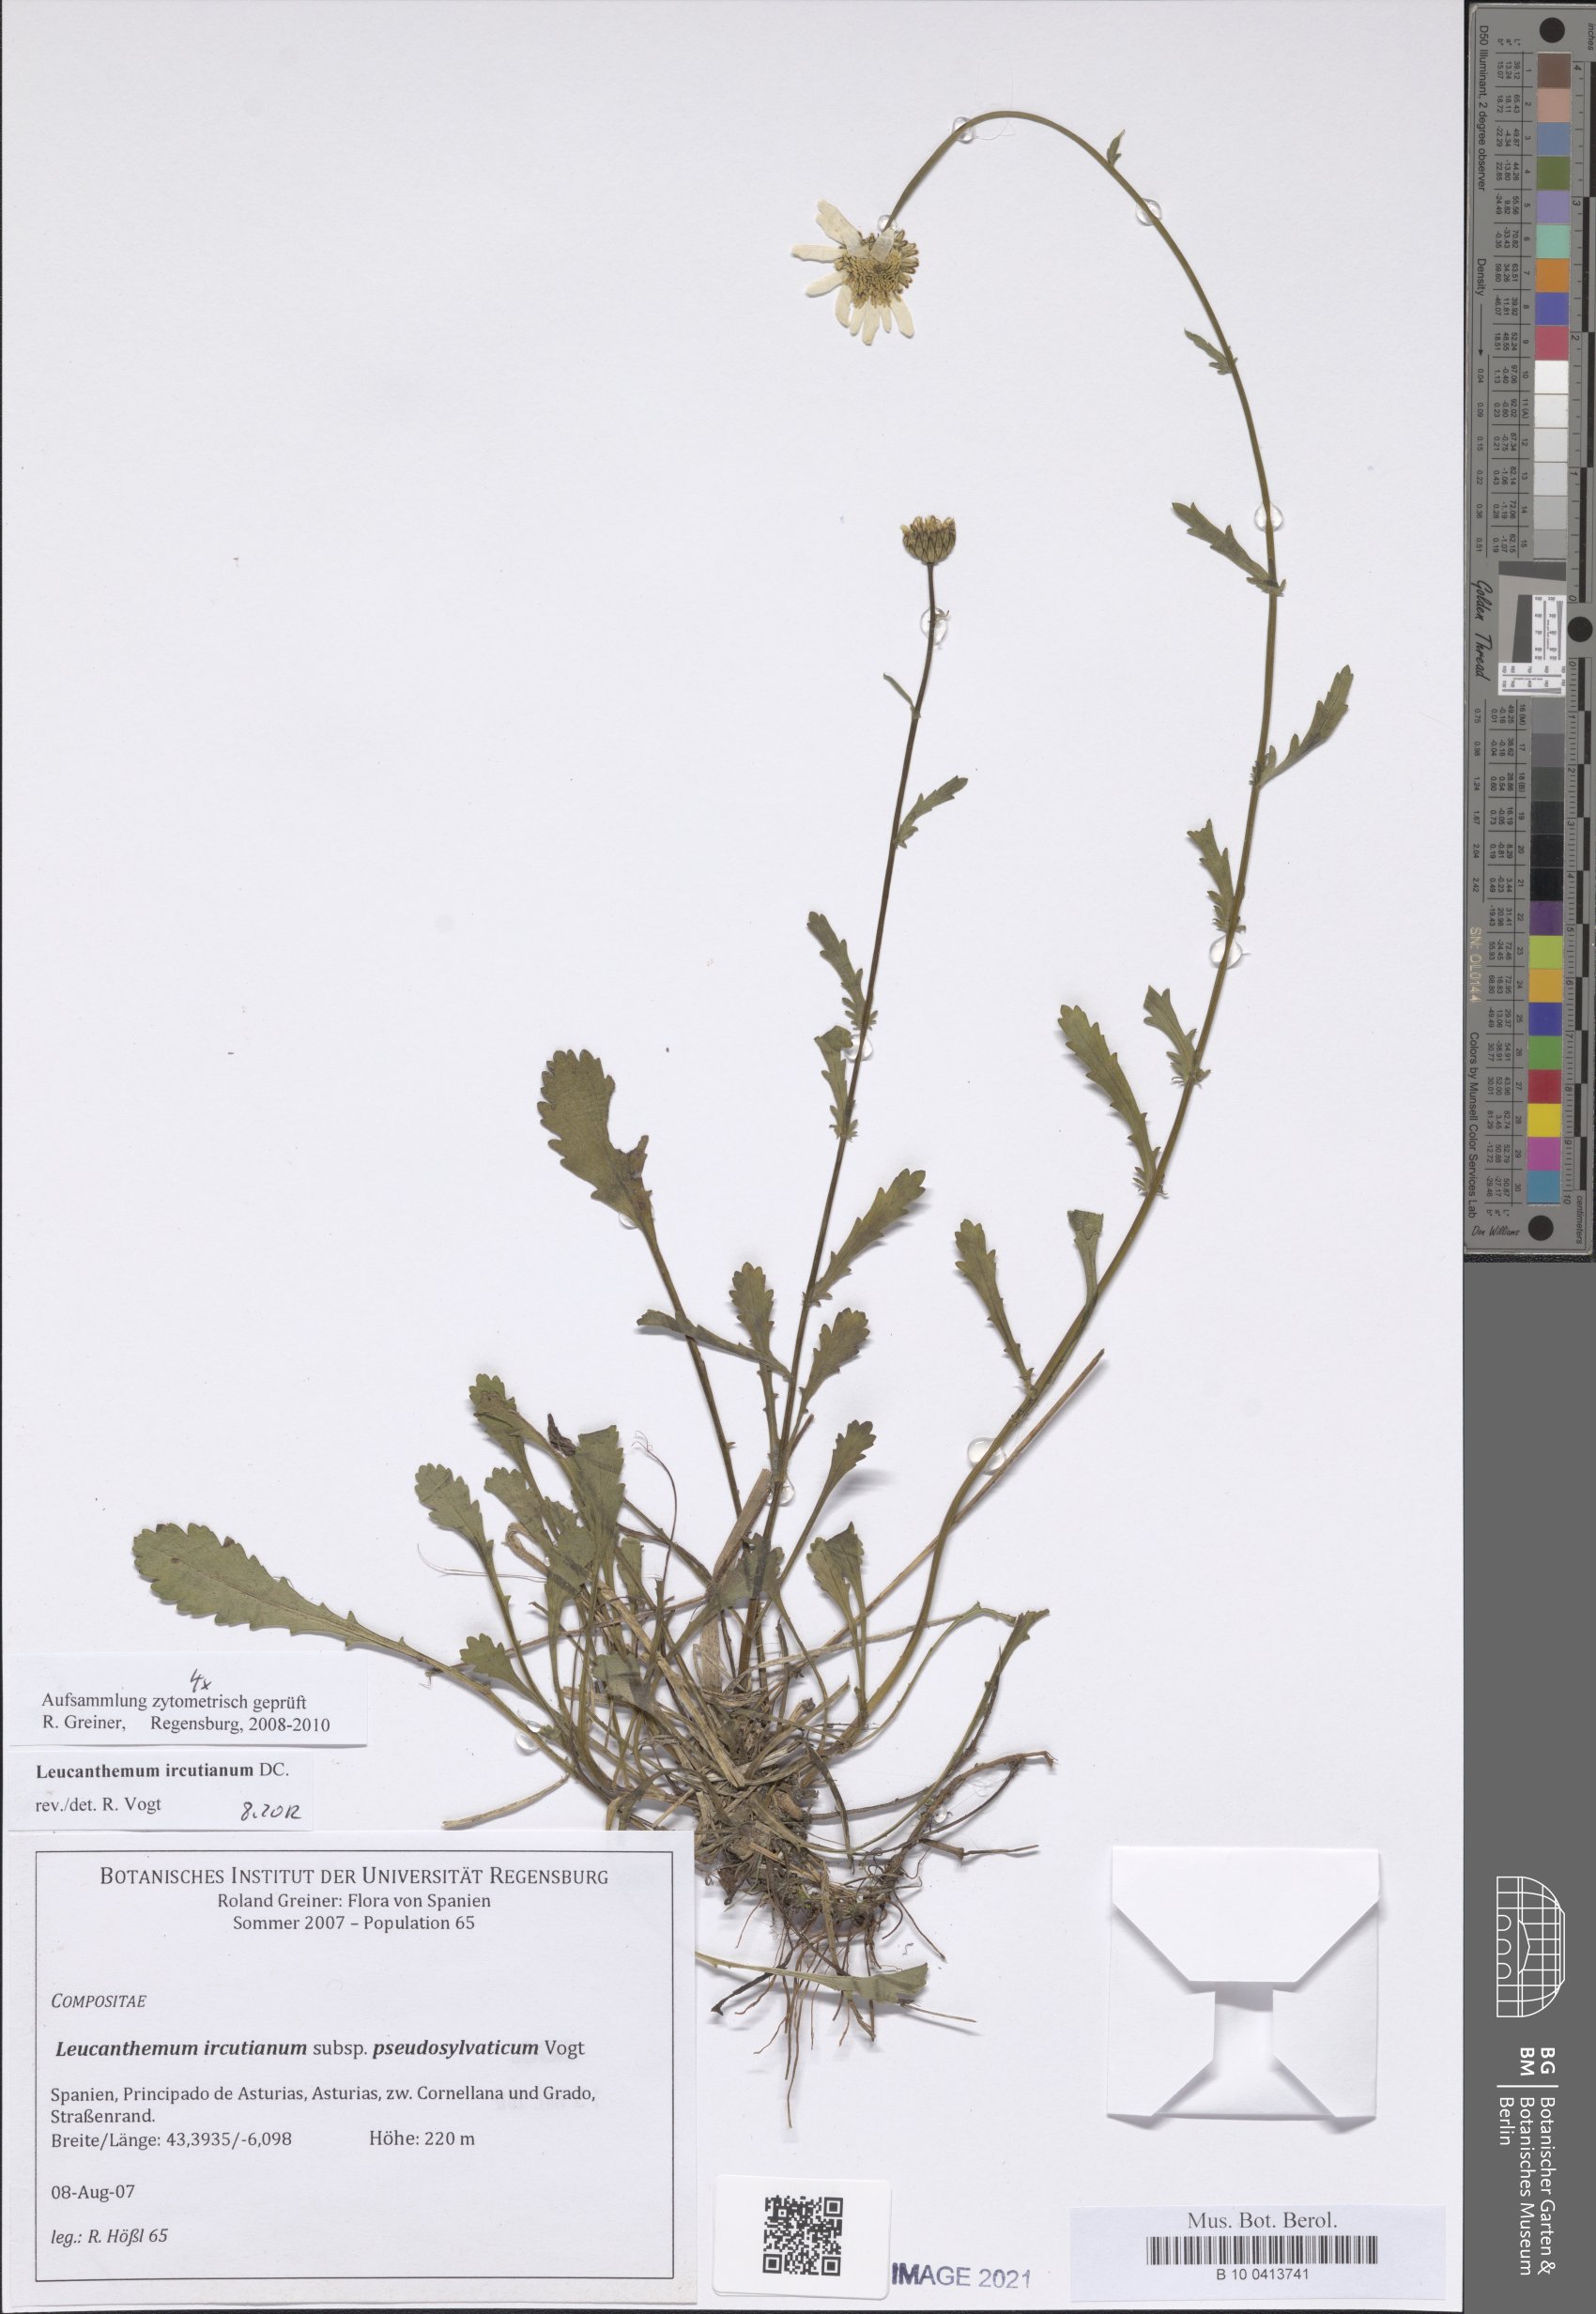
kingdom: Plantae
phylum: Tracheophyta
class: Magnoliopsida
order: Asterales
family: Asteraceae
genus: Leucanthemum
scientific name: Leucanthemum ircutianum
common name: Daisy
